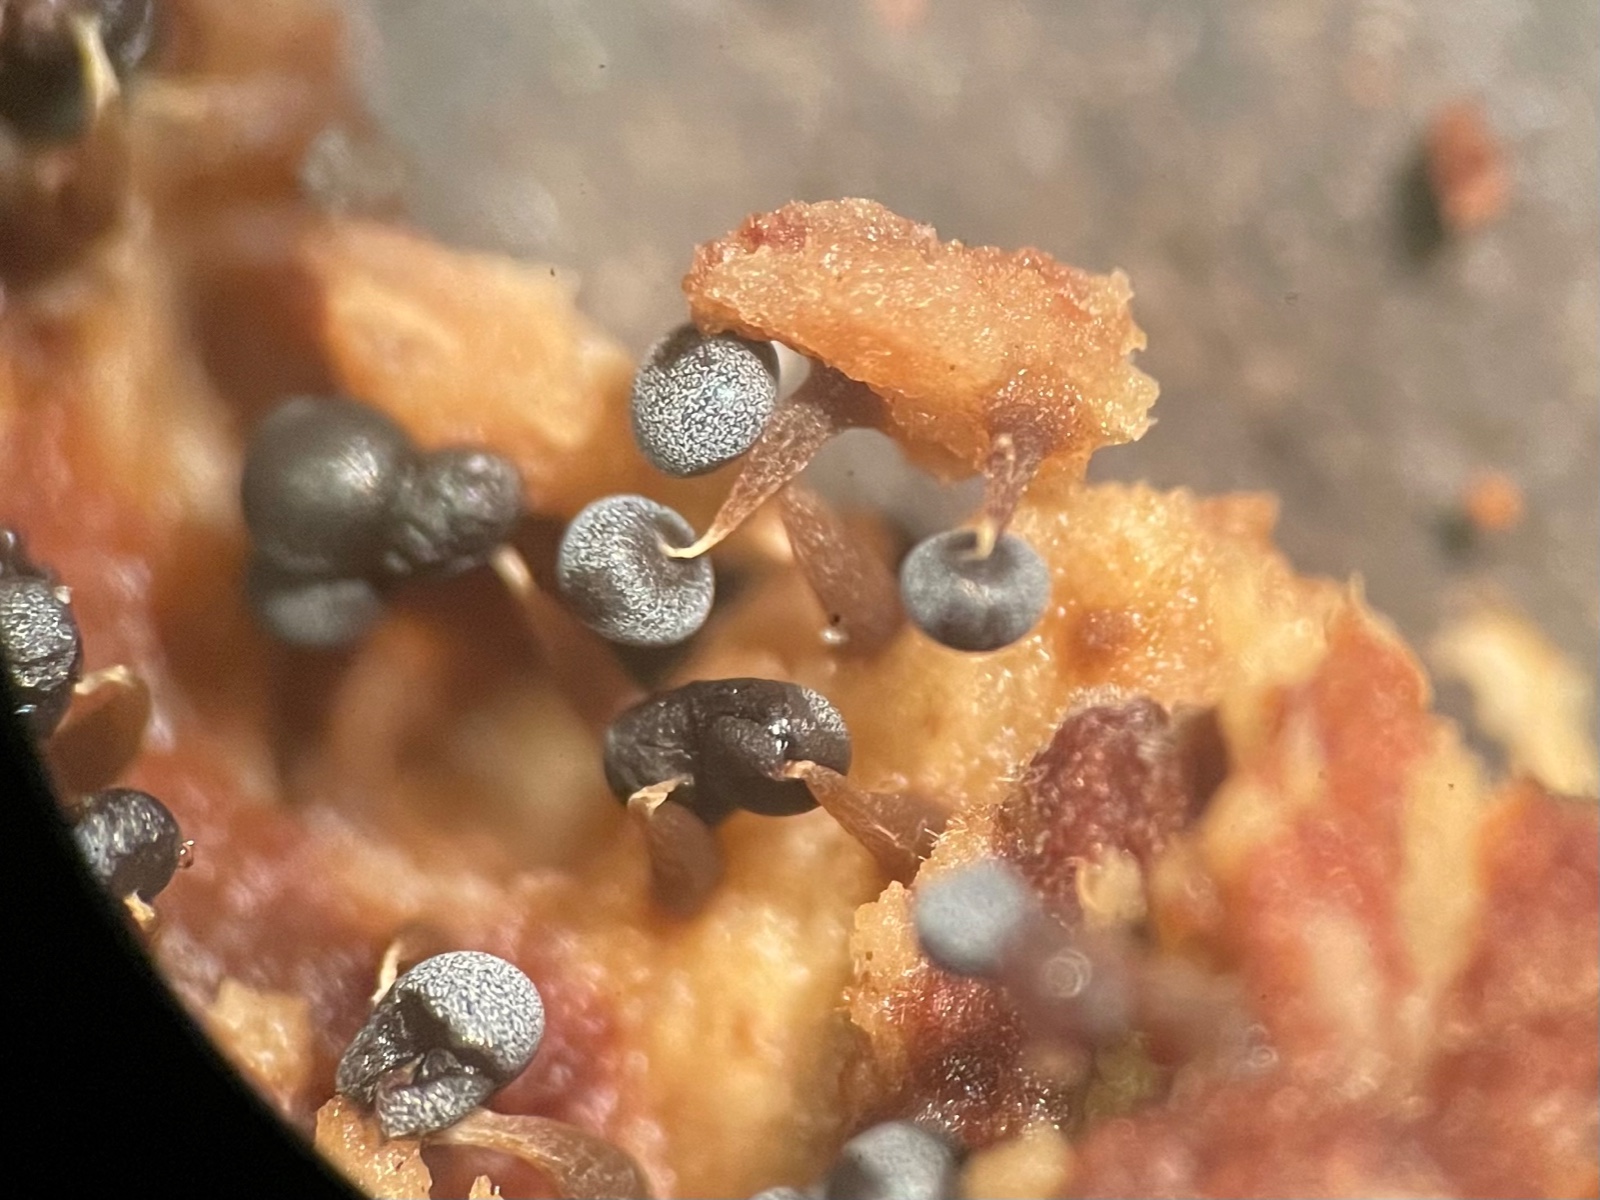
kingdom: Protozoa
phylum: Mycetozoa
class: Myxomycetes
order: Physarales
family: Physaraceae
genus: Physarum
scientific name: Physarum album
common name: nikkende støvknop
